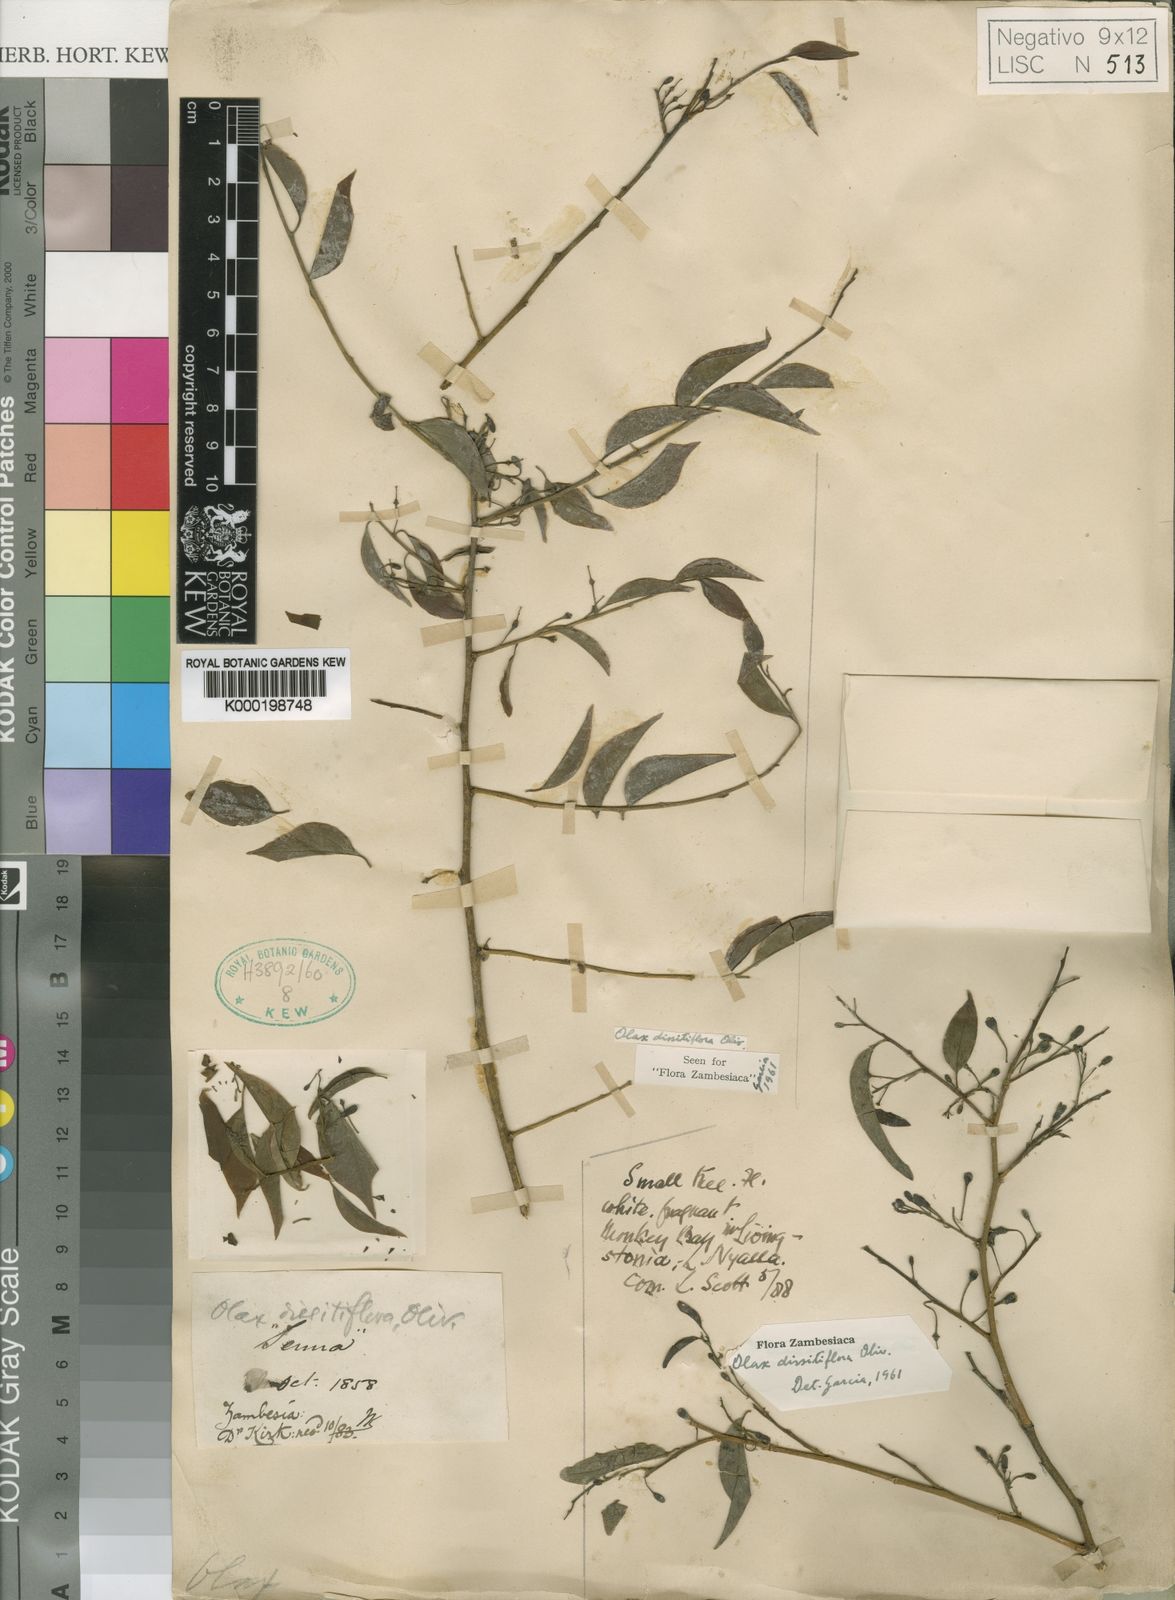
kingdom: Plantae
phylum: Tracheophyta
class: Magnoliopsida
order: Santalales
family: Olacaceae
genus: Olax
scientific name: Olax dissitiflora
